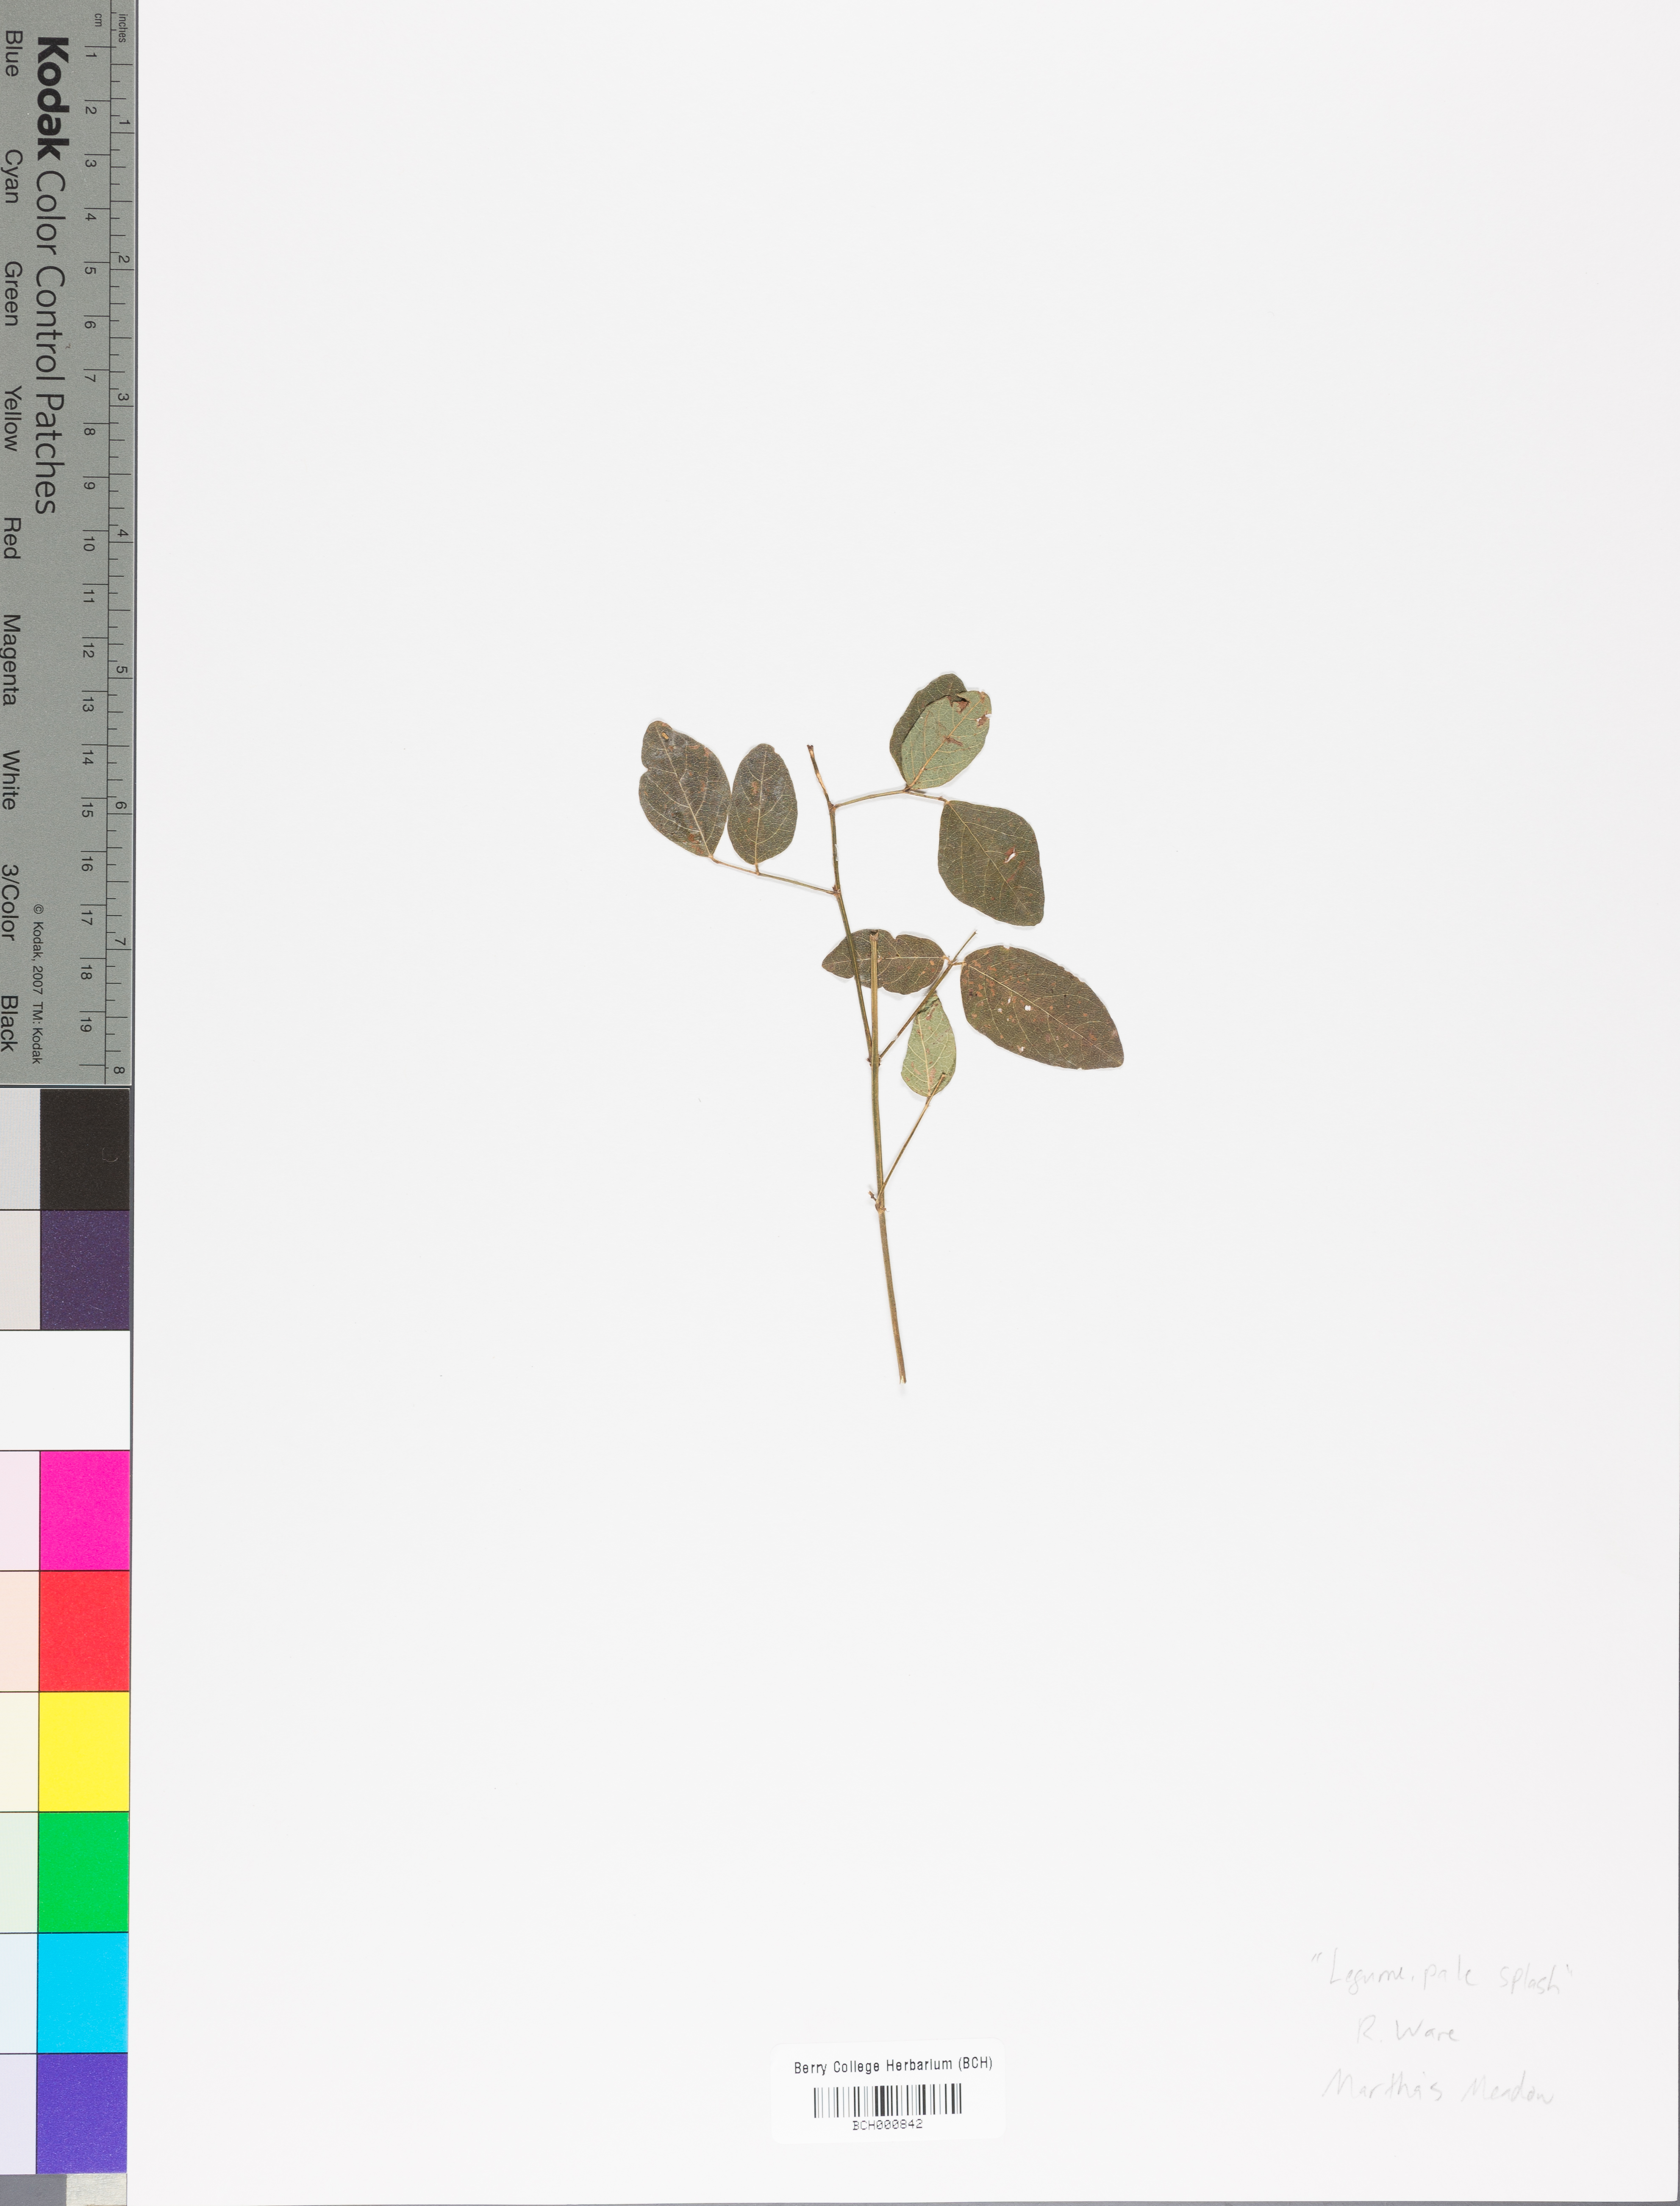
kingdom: Plantae
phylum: Tracheophyta
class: Magnoliopsida
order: Lamiales
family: Acanthaceae
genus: Adhatoda
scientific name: Adhatoda
